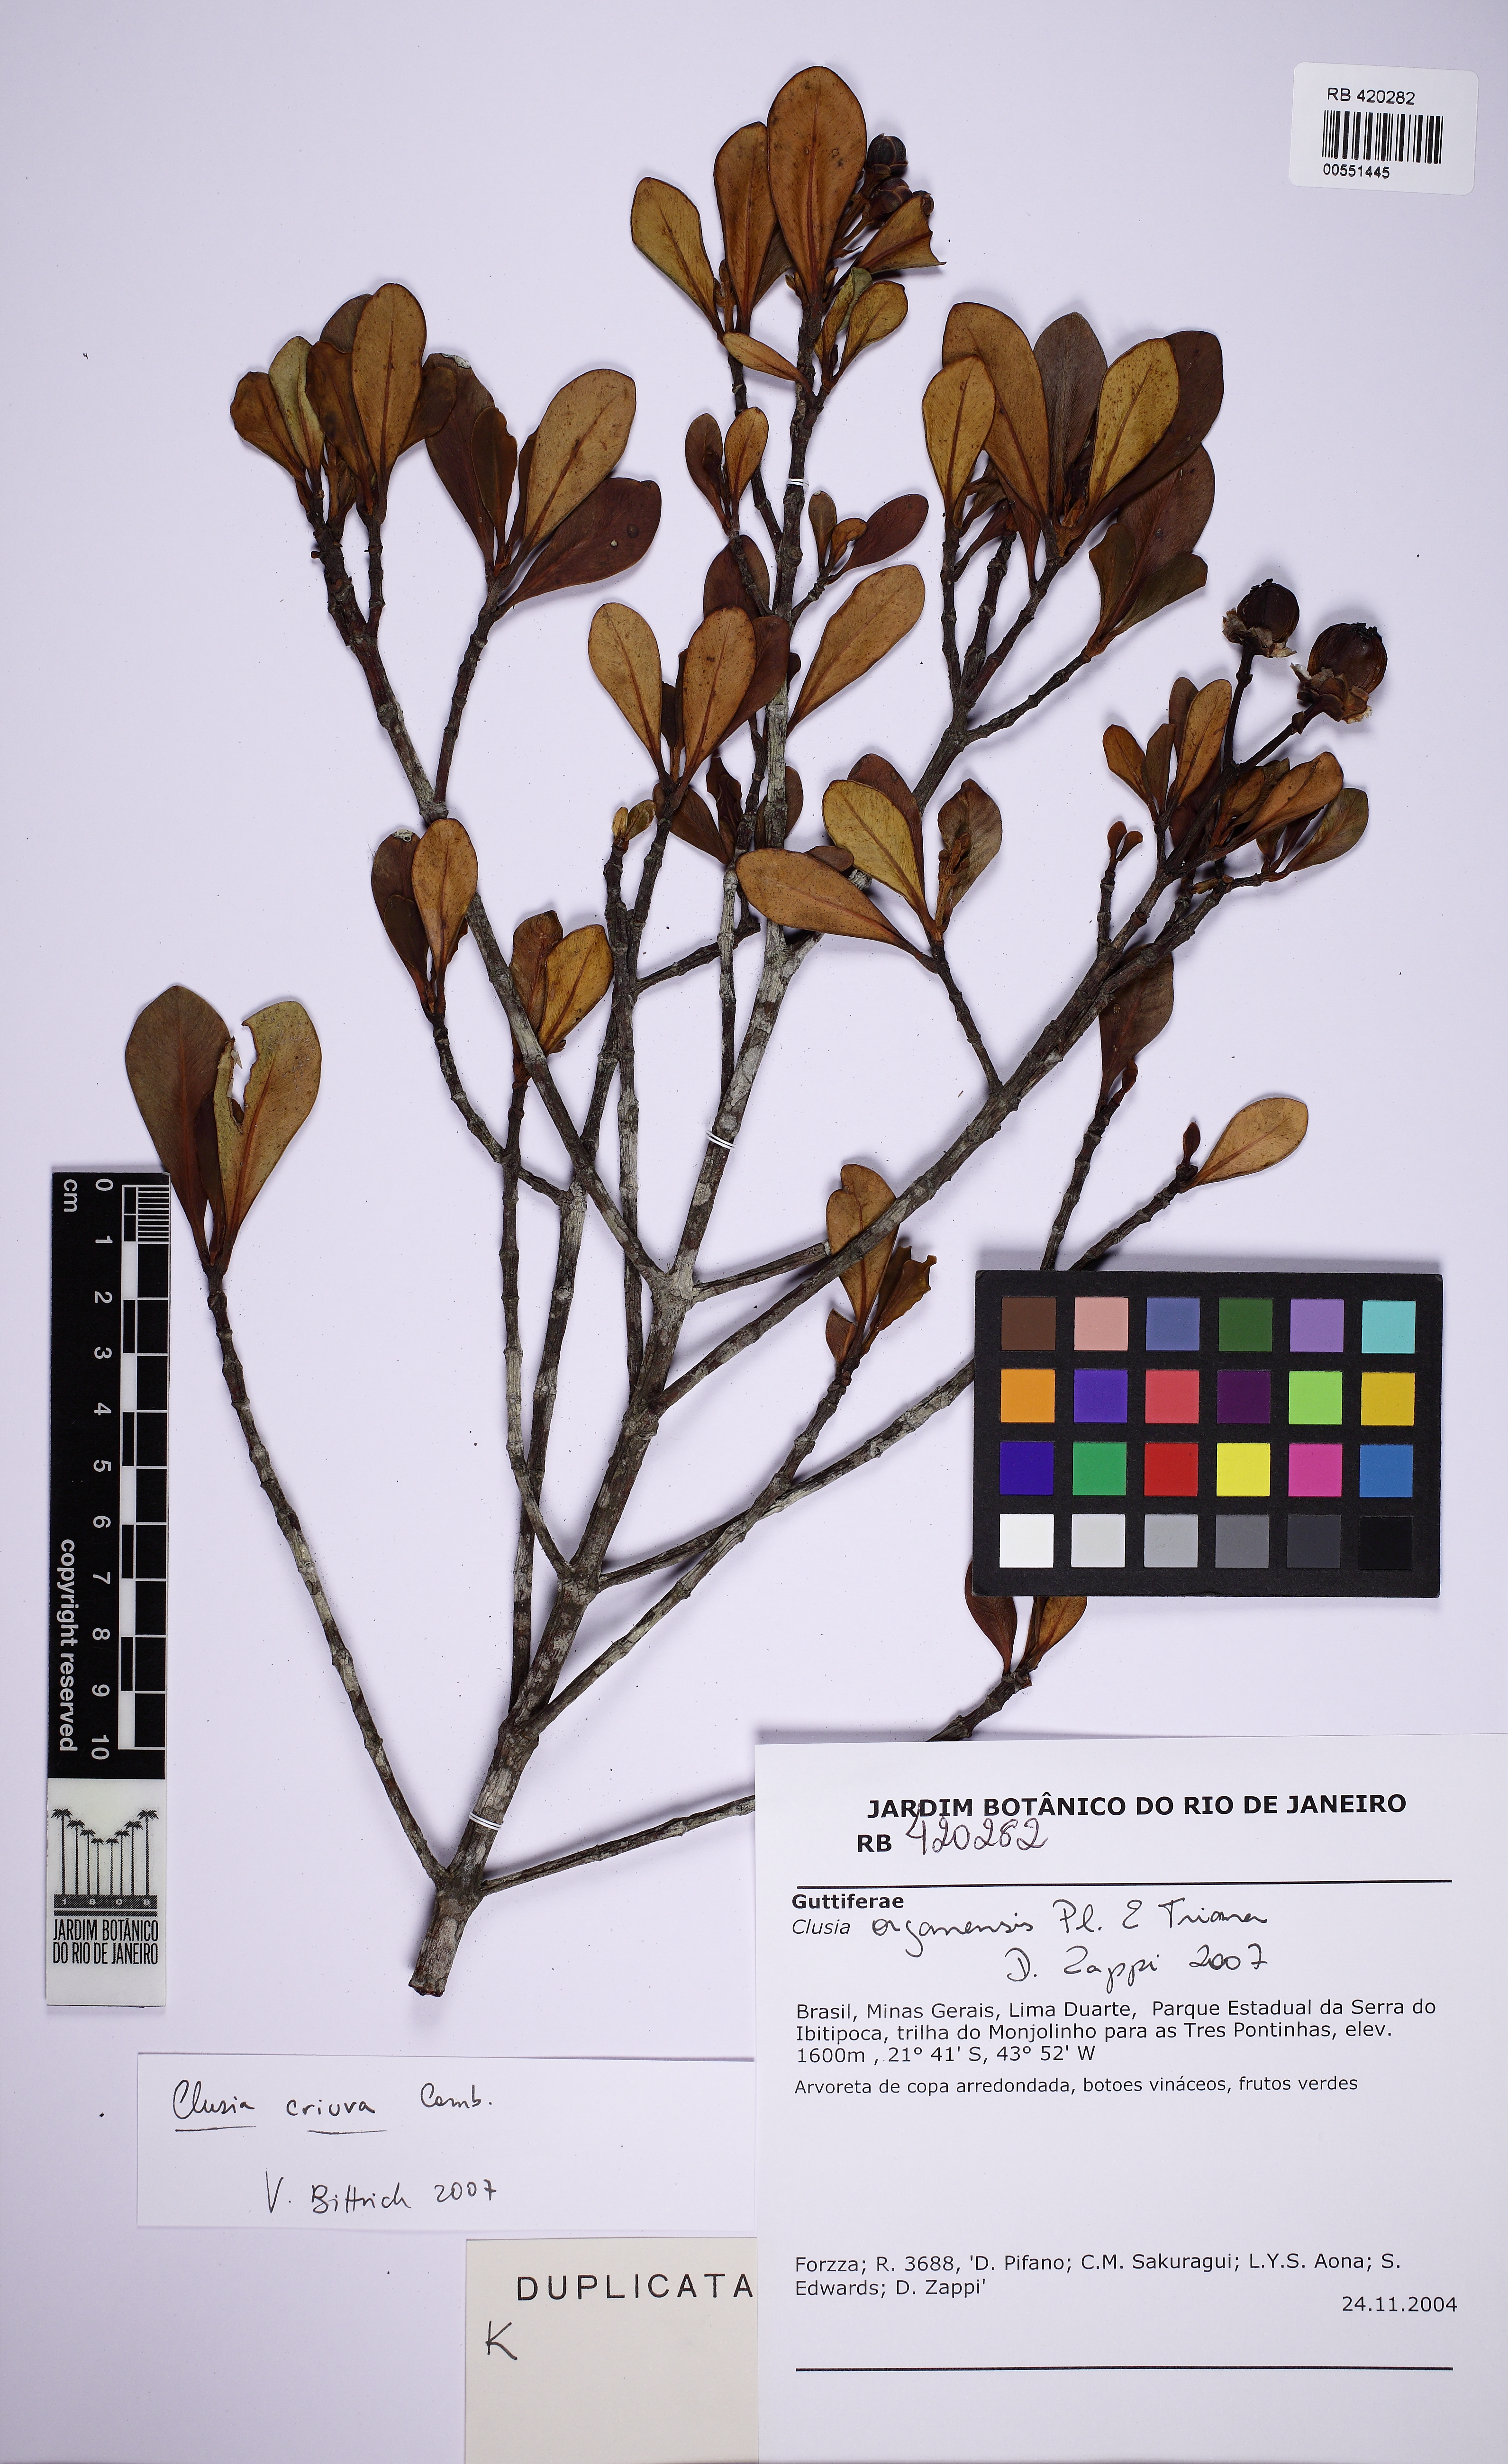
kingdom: Plantae
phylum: Tracheophyta
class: Magnoliopsida
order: Malpighiales
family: Clusiaceae
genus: Clusia
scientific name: Clusia criuva
